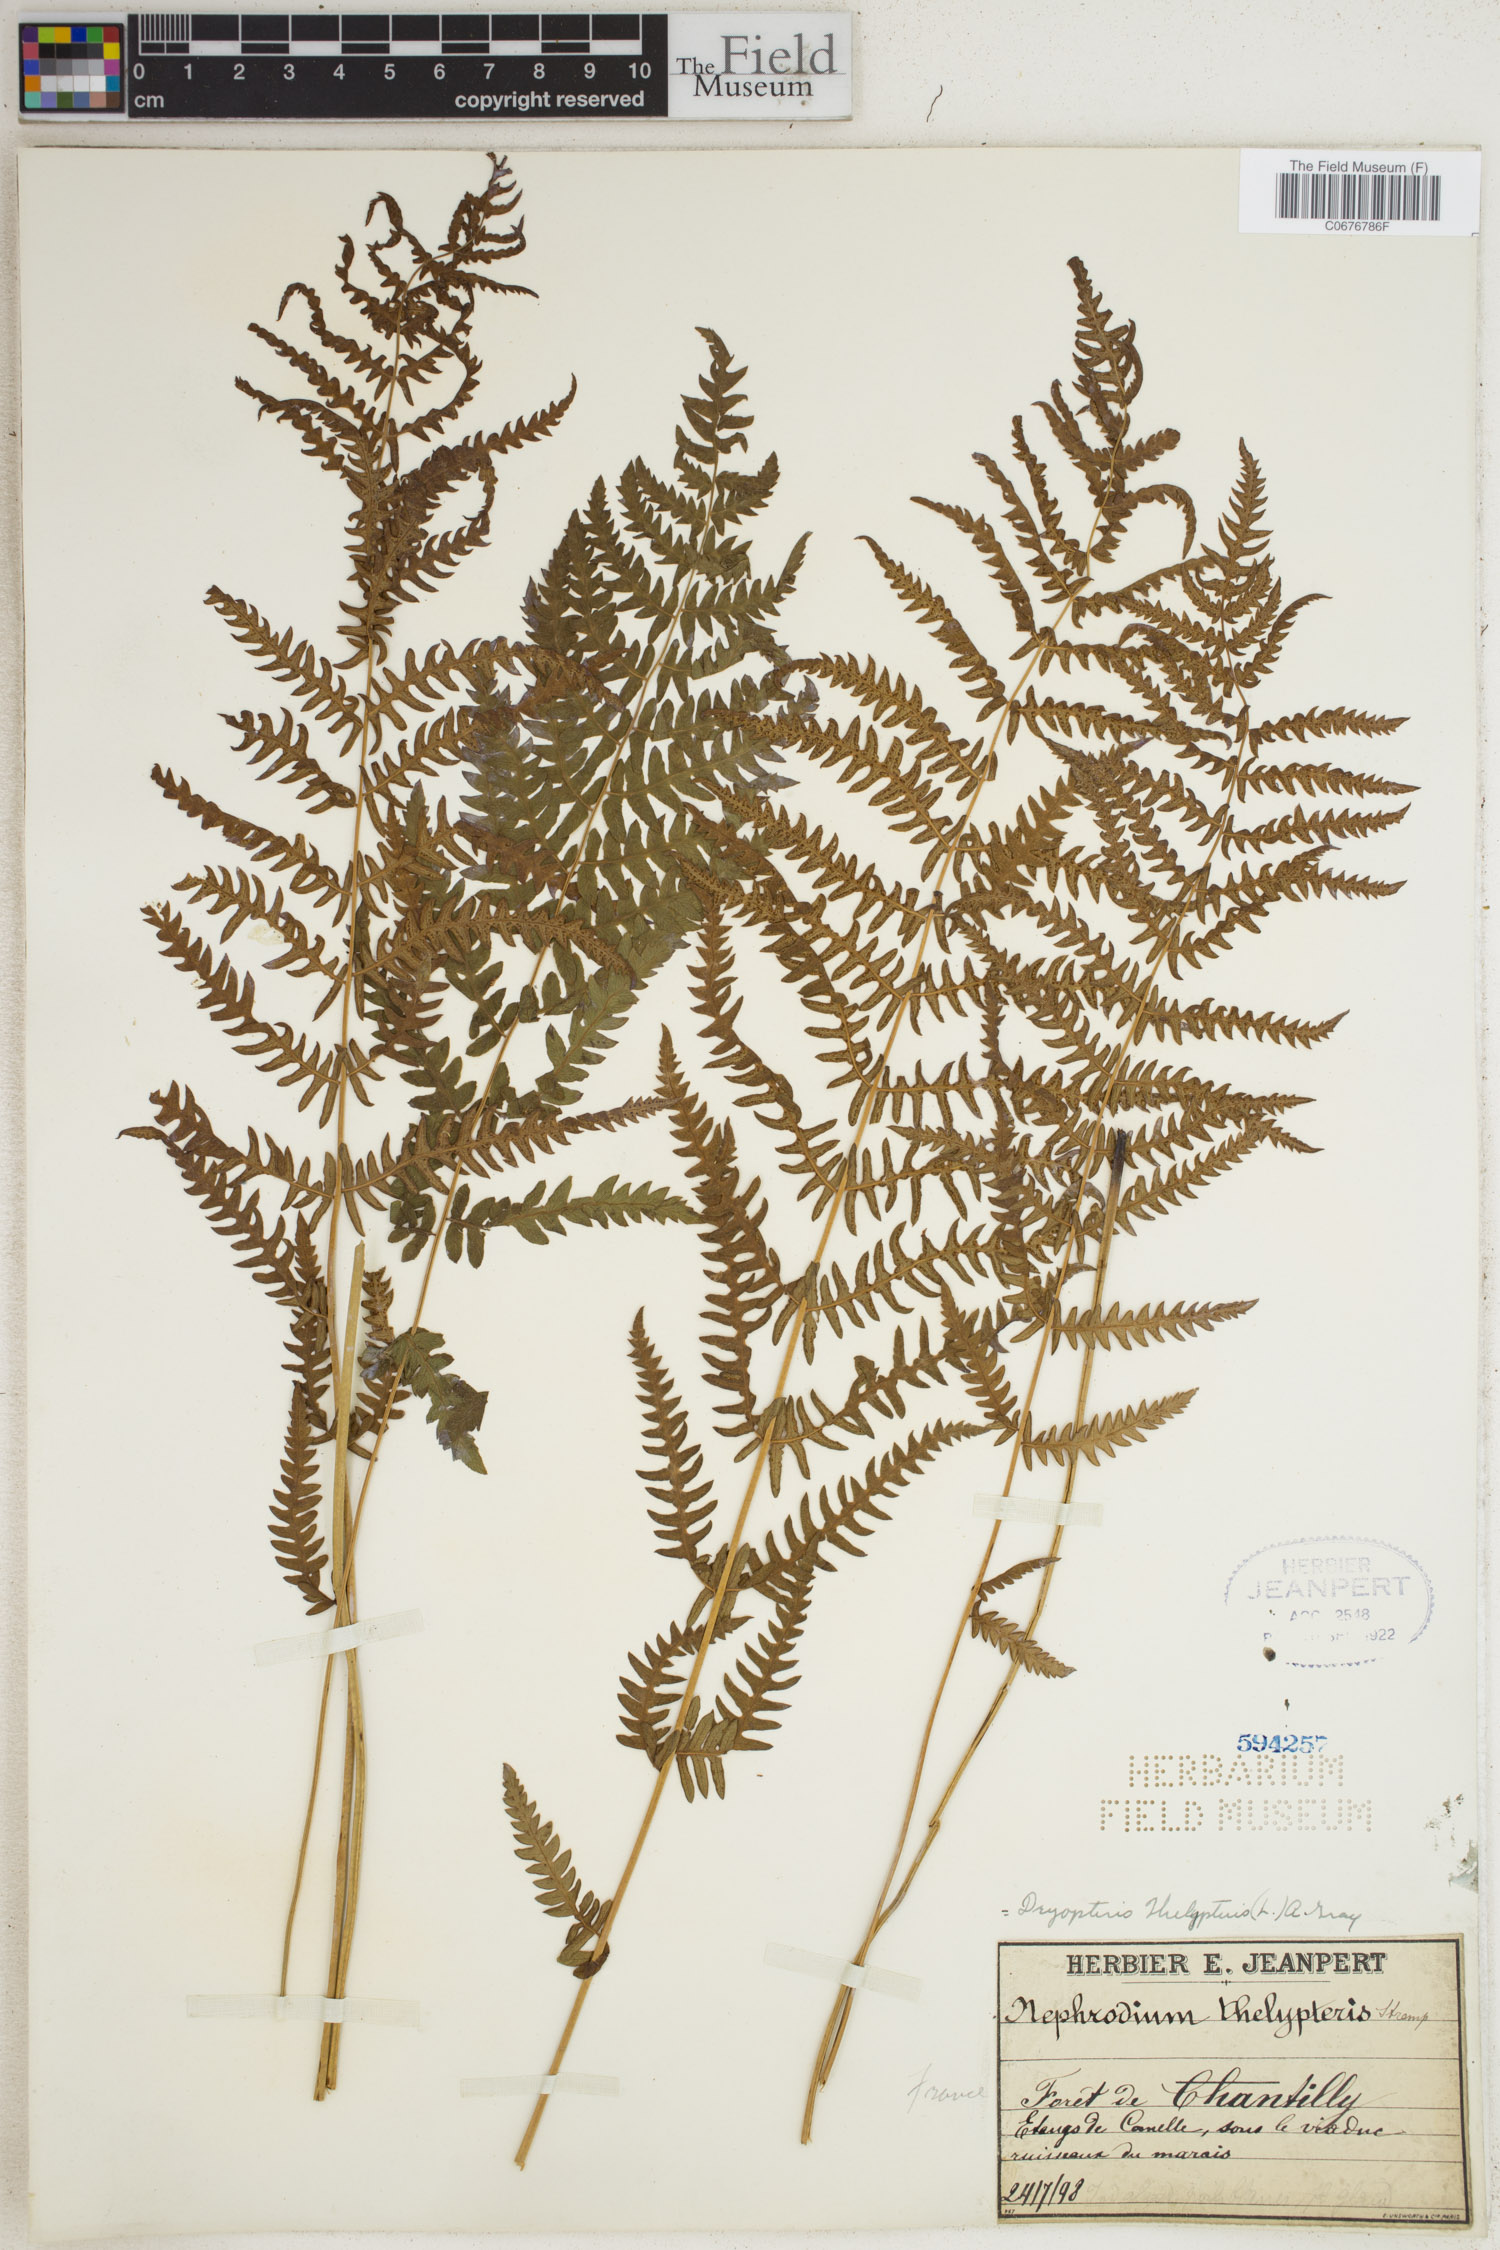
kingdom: Plantae
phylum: Tracheophyta
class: Polypodiopsida
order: Polypodiales
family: Thelypteridaceae
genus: Thelypteris
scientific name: Thelypteris palustris
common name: Marsh fern
